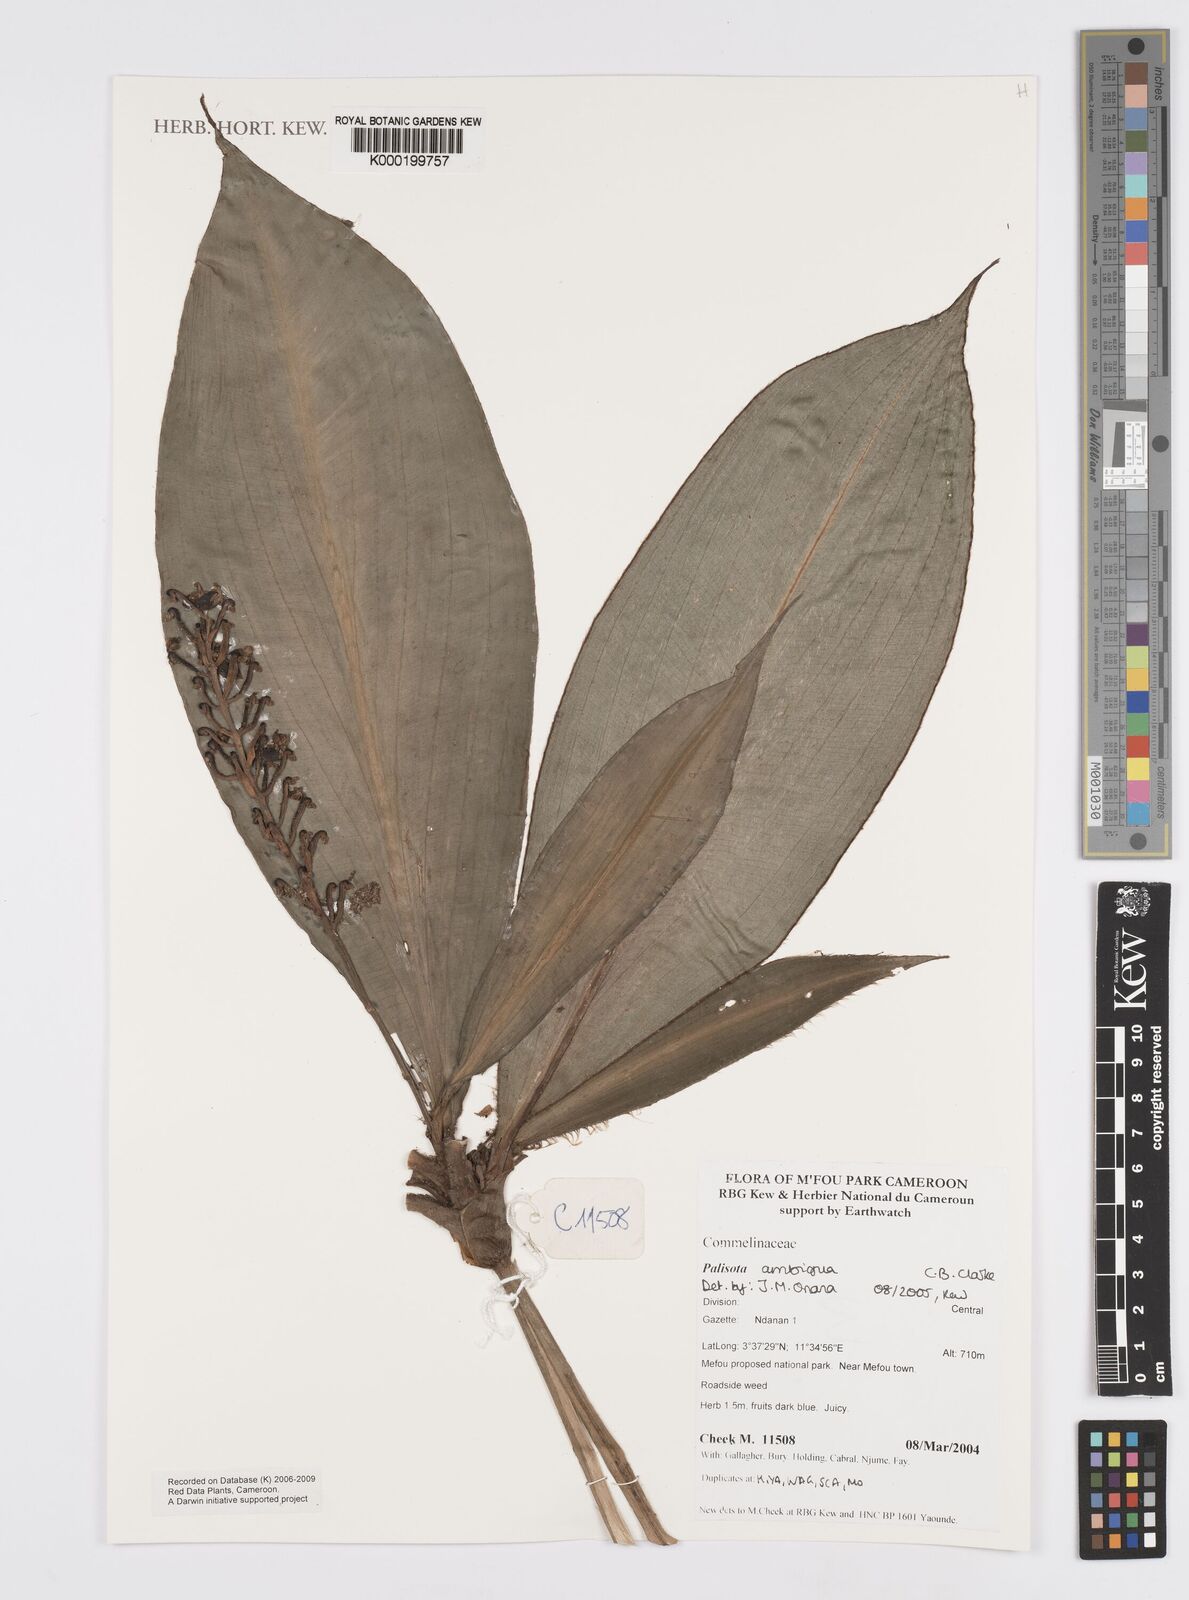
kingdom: Plantae
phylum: Tracheophyta
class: Liliopsida
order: Commelinales
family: Commelinaceae
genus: Palisota
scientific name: Palisota ambigua
